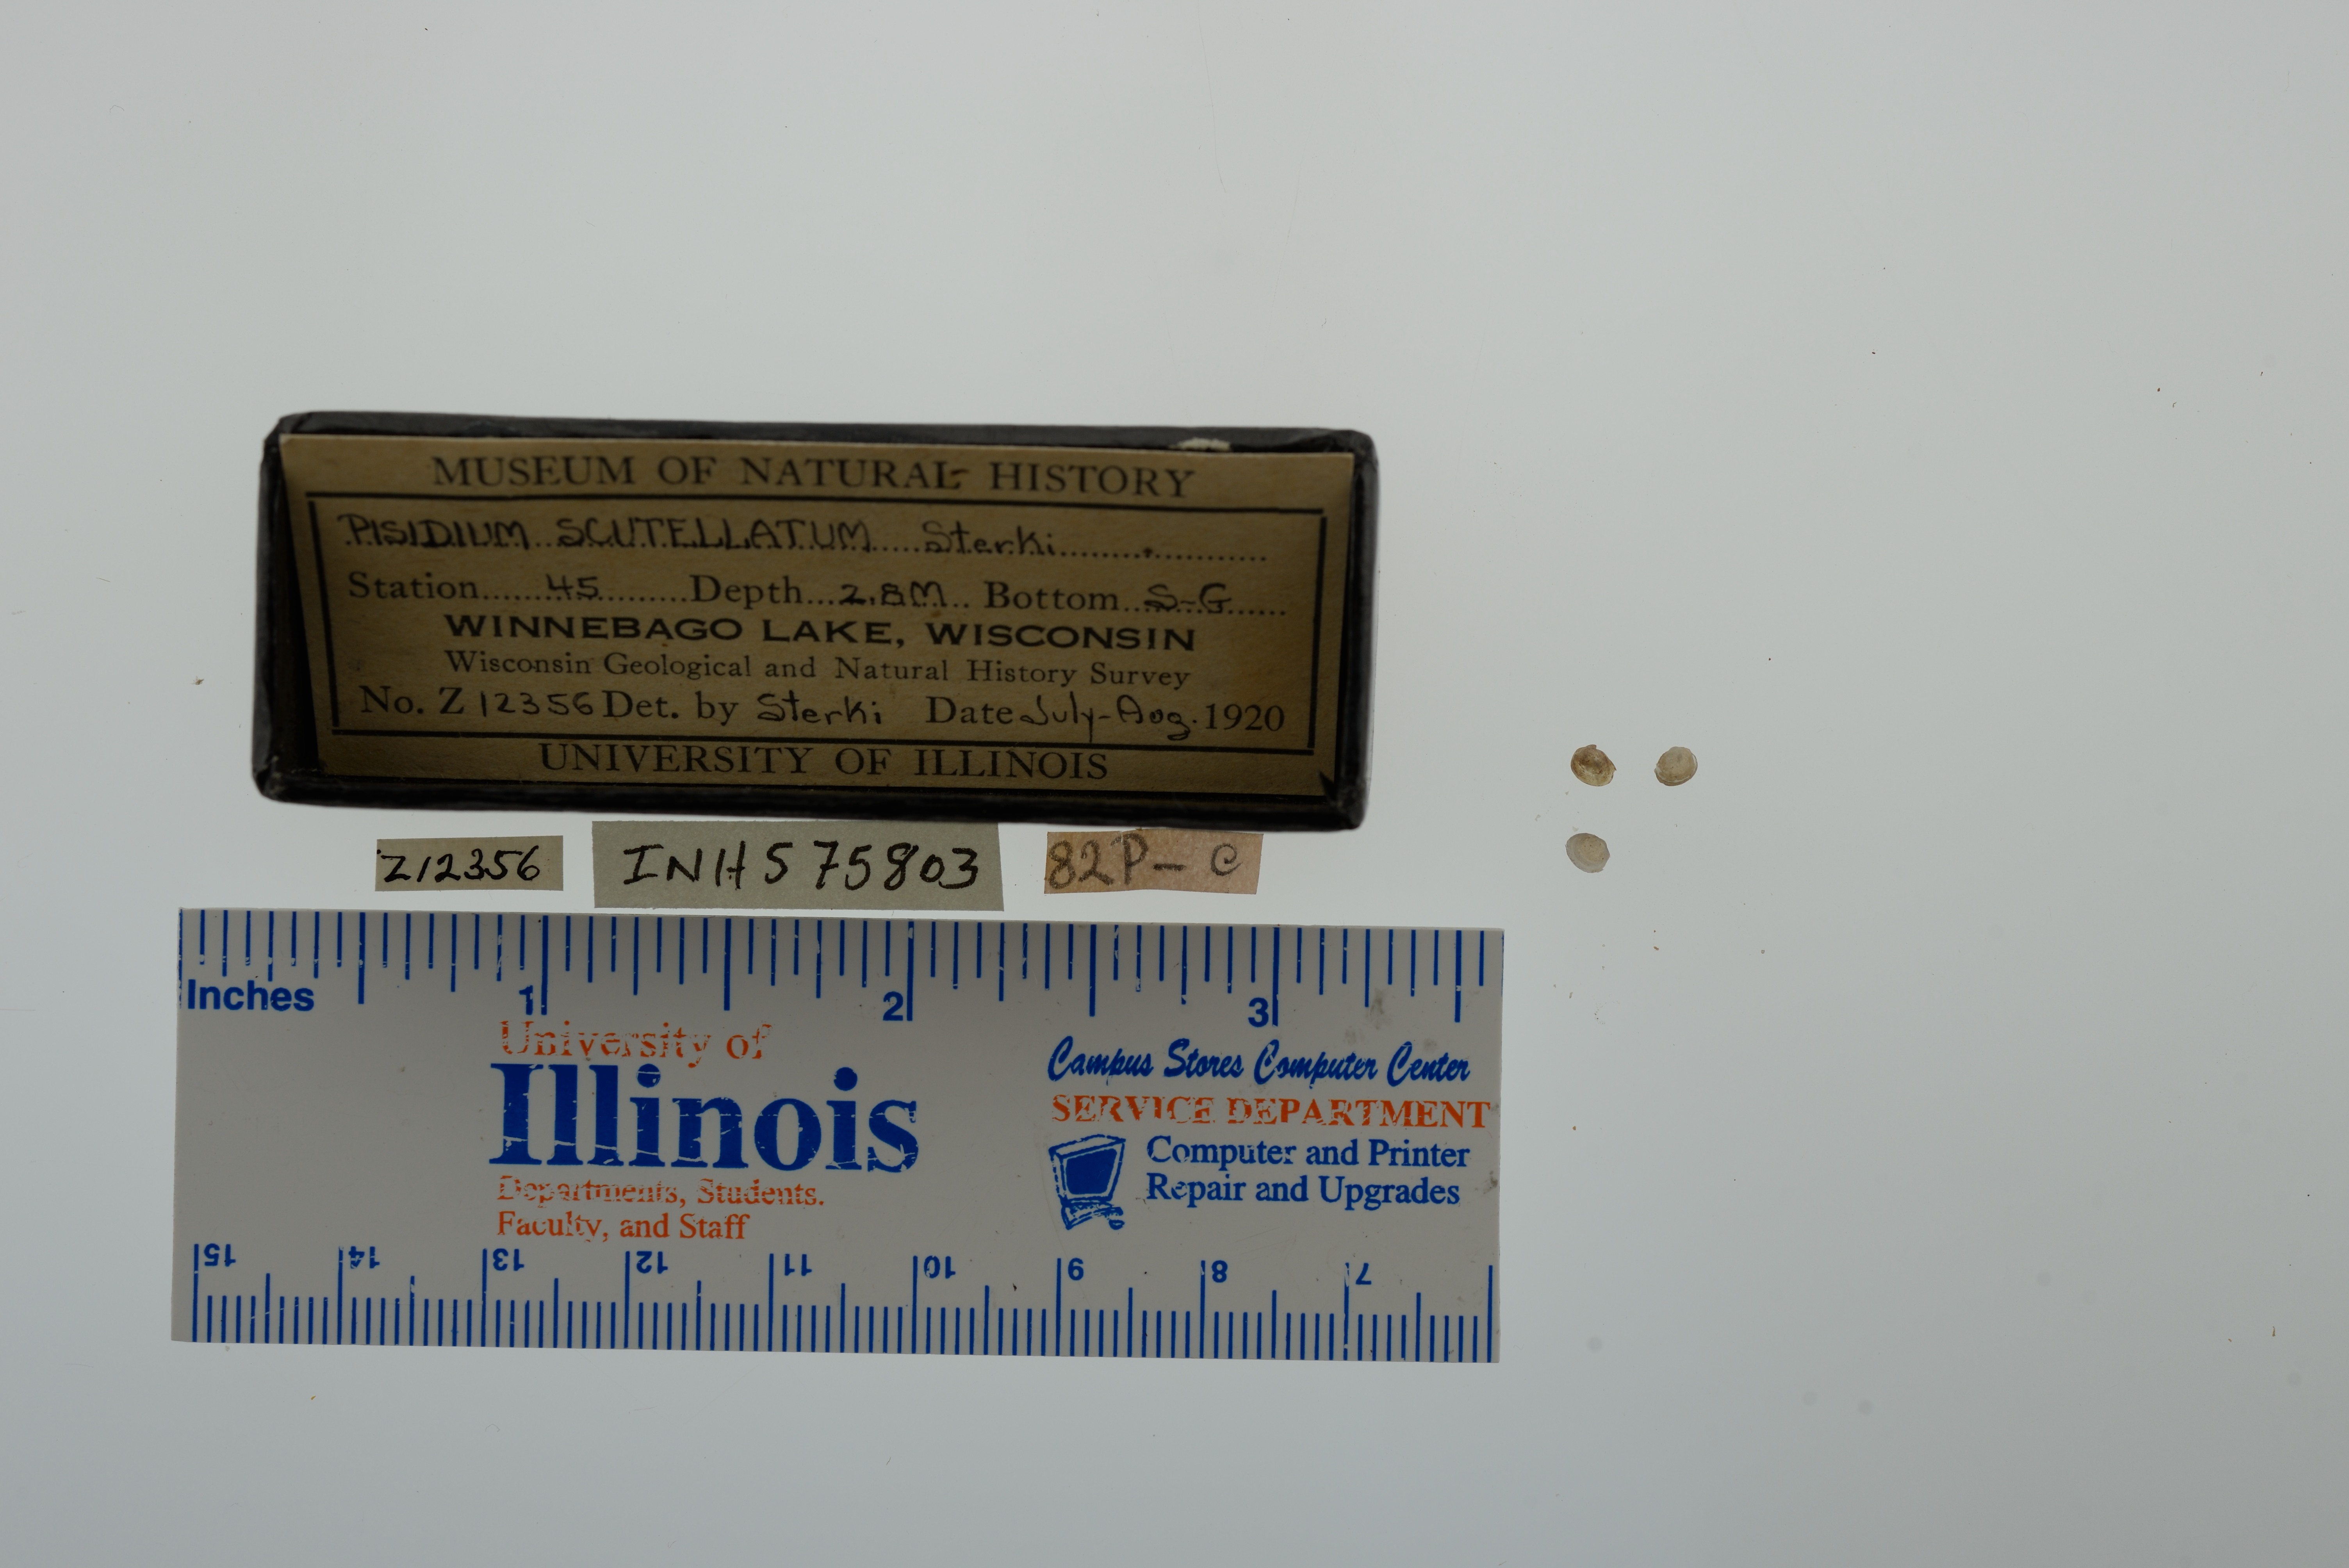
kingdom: Animalia
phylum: Mollusca
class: Bivalvia
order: Sphaeriida
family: Sphaeriidae
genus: Euglesa
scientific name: Euglesa lilljeborgii
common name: Lilljeborg peaclam
